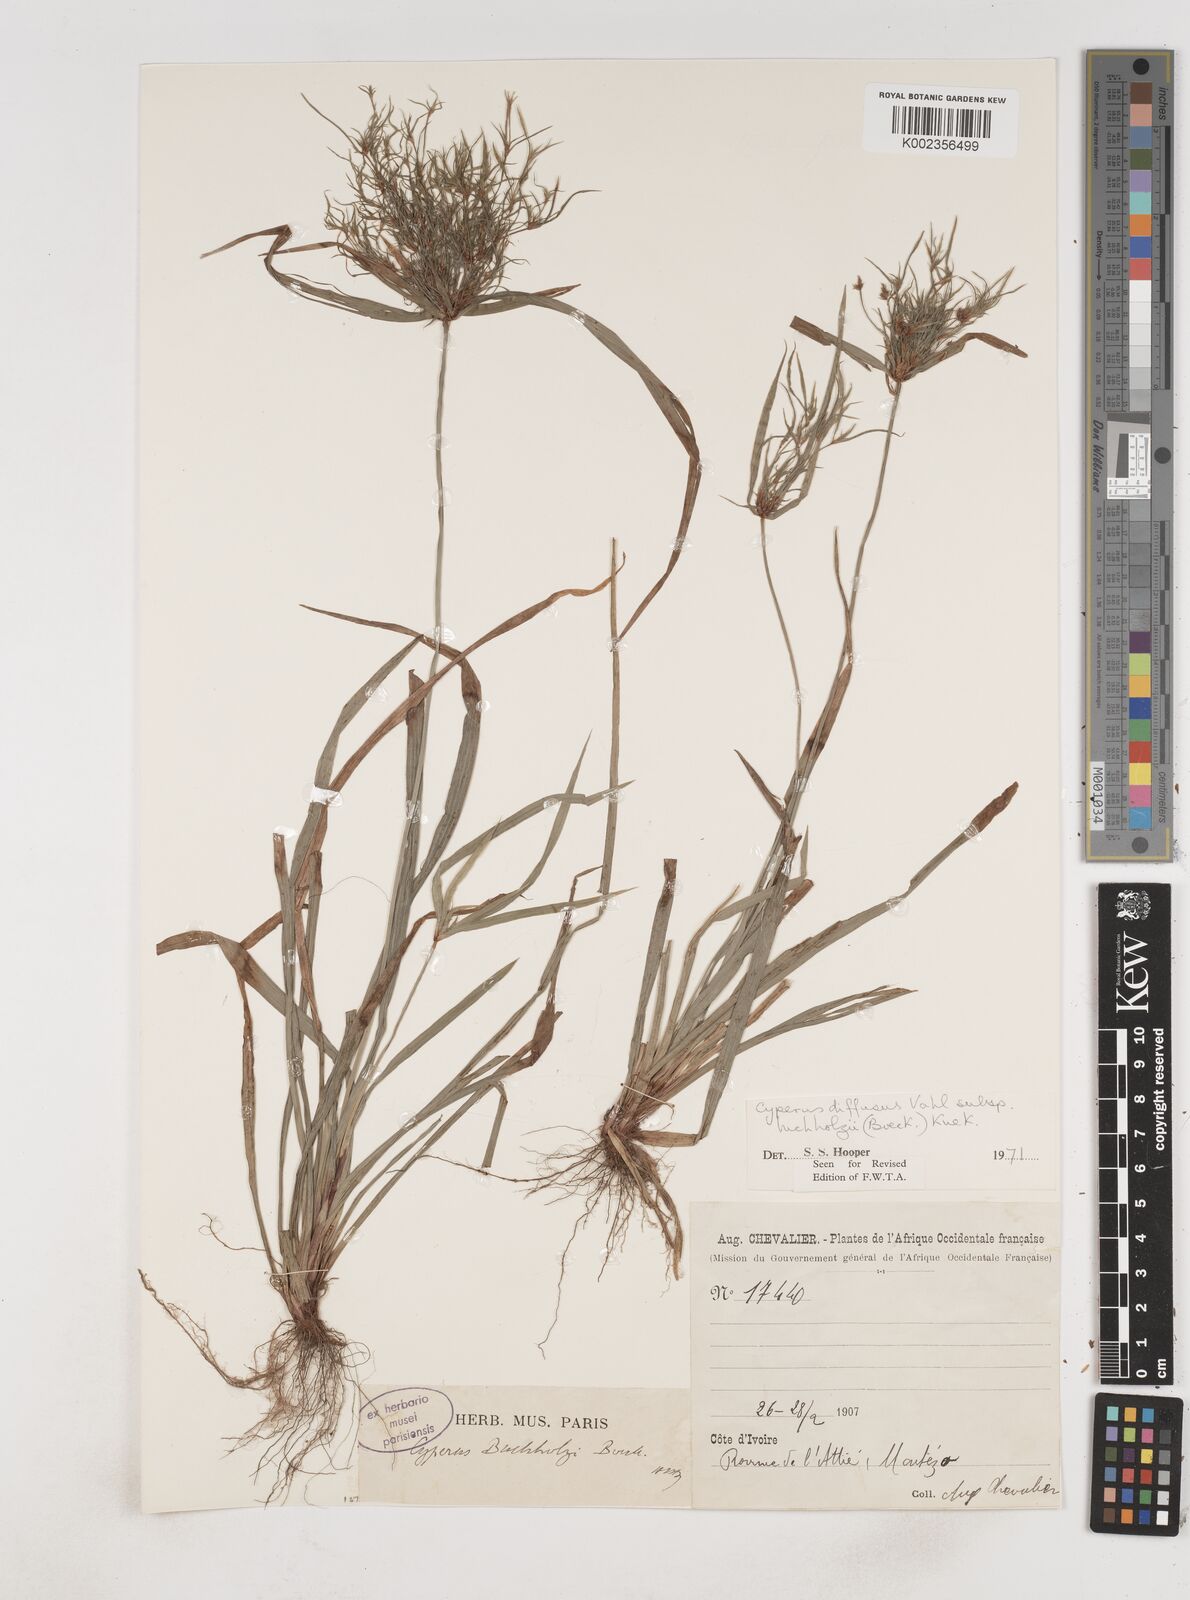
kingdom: Plantae
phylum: Tracheophyta
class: Liliopsida
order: Poales
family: Cyperaceae
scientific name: Cyperaceae
